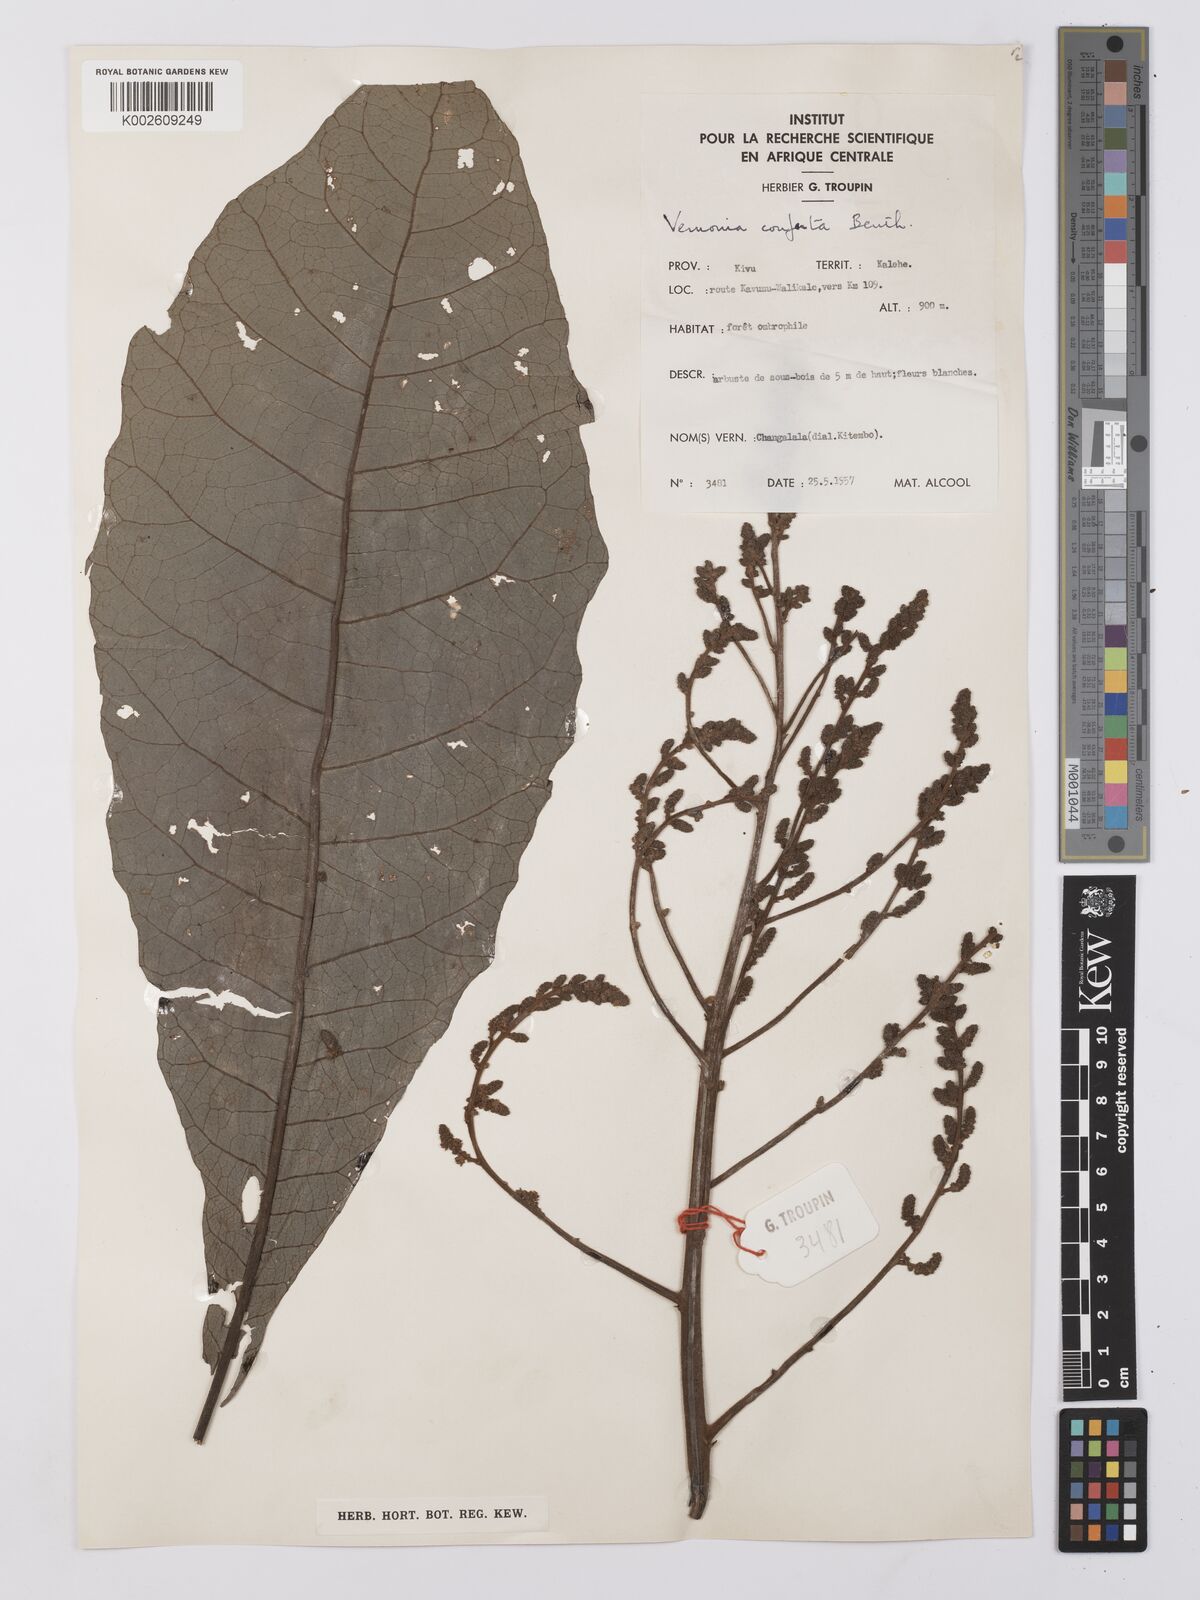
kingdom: Plantae
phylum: Tracheophyta
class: Magnoliopsida
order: Asterales
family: Asteraceae
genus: Monosis
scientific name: Monosis conferta
